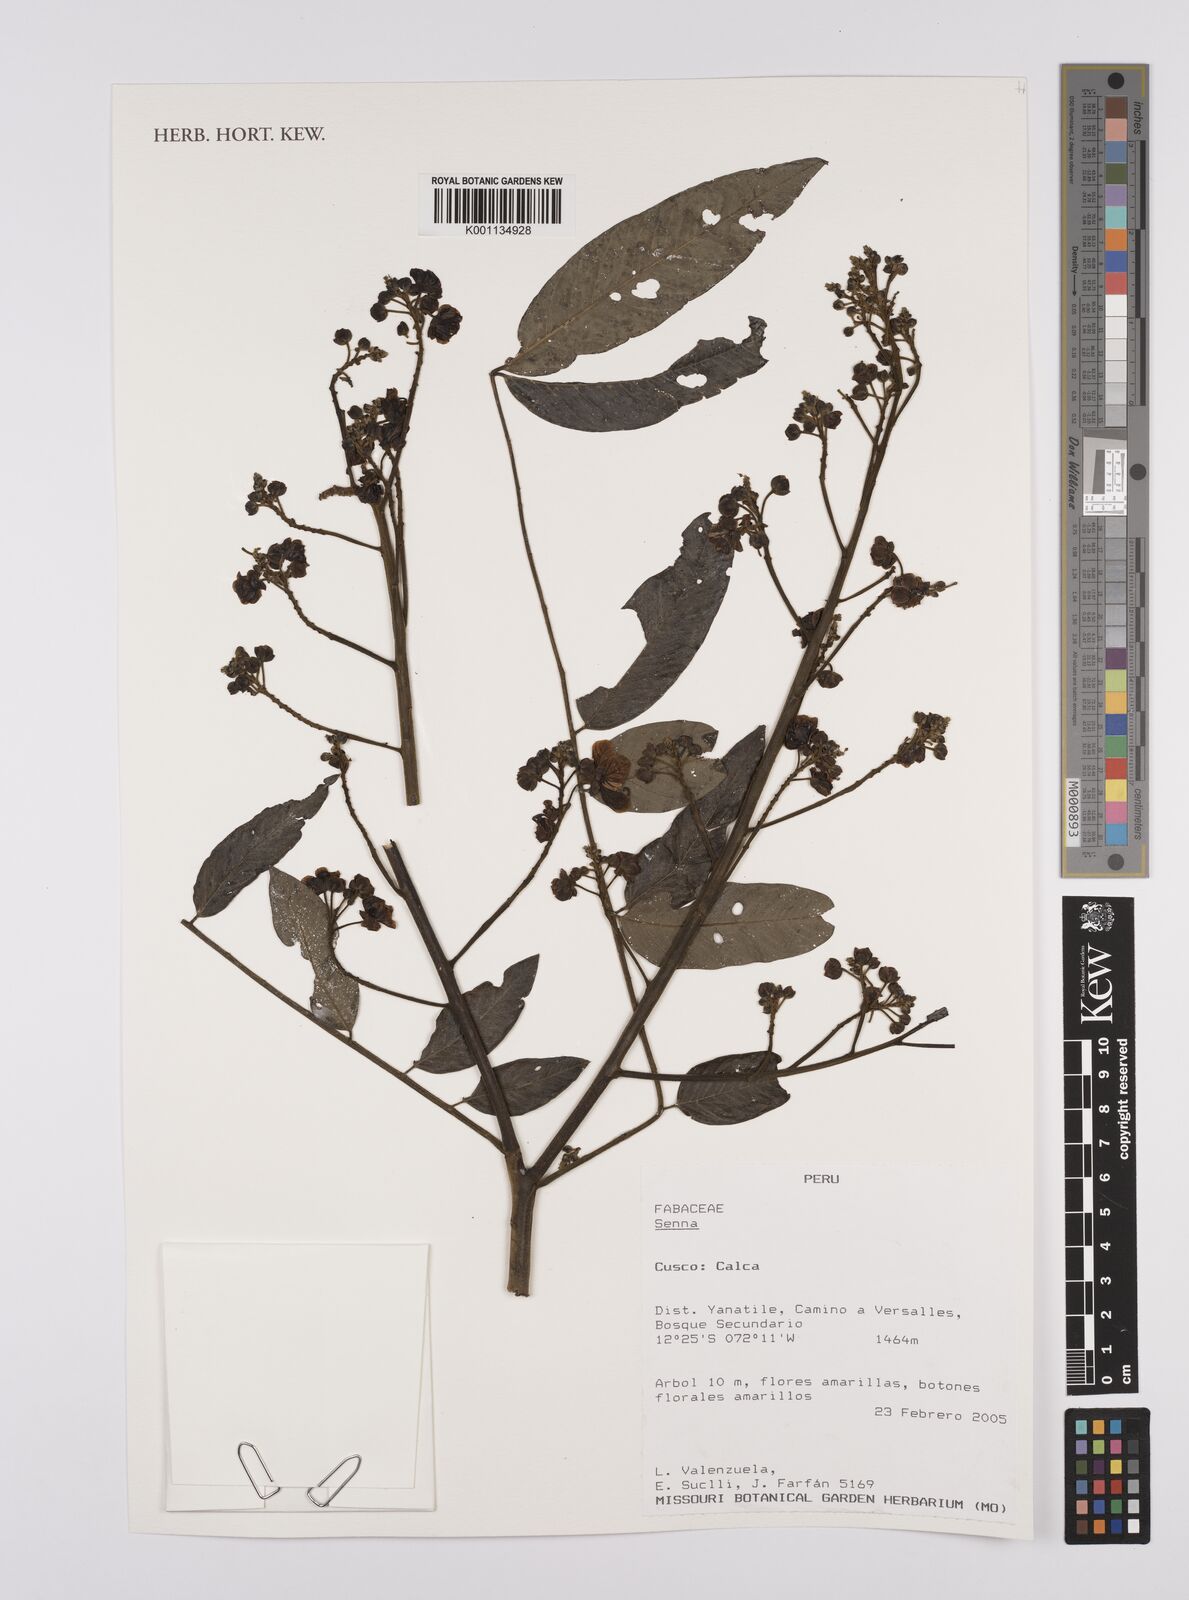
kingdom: Plantae
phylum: Tracheophyta
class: Magnoliopsida
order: Fabales
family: Fabaceae
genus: Senna
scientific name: Senna
